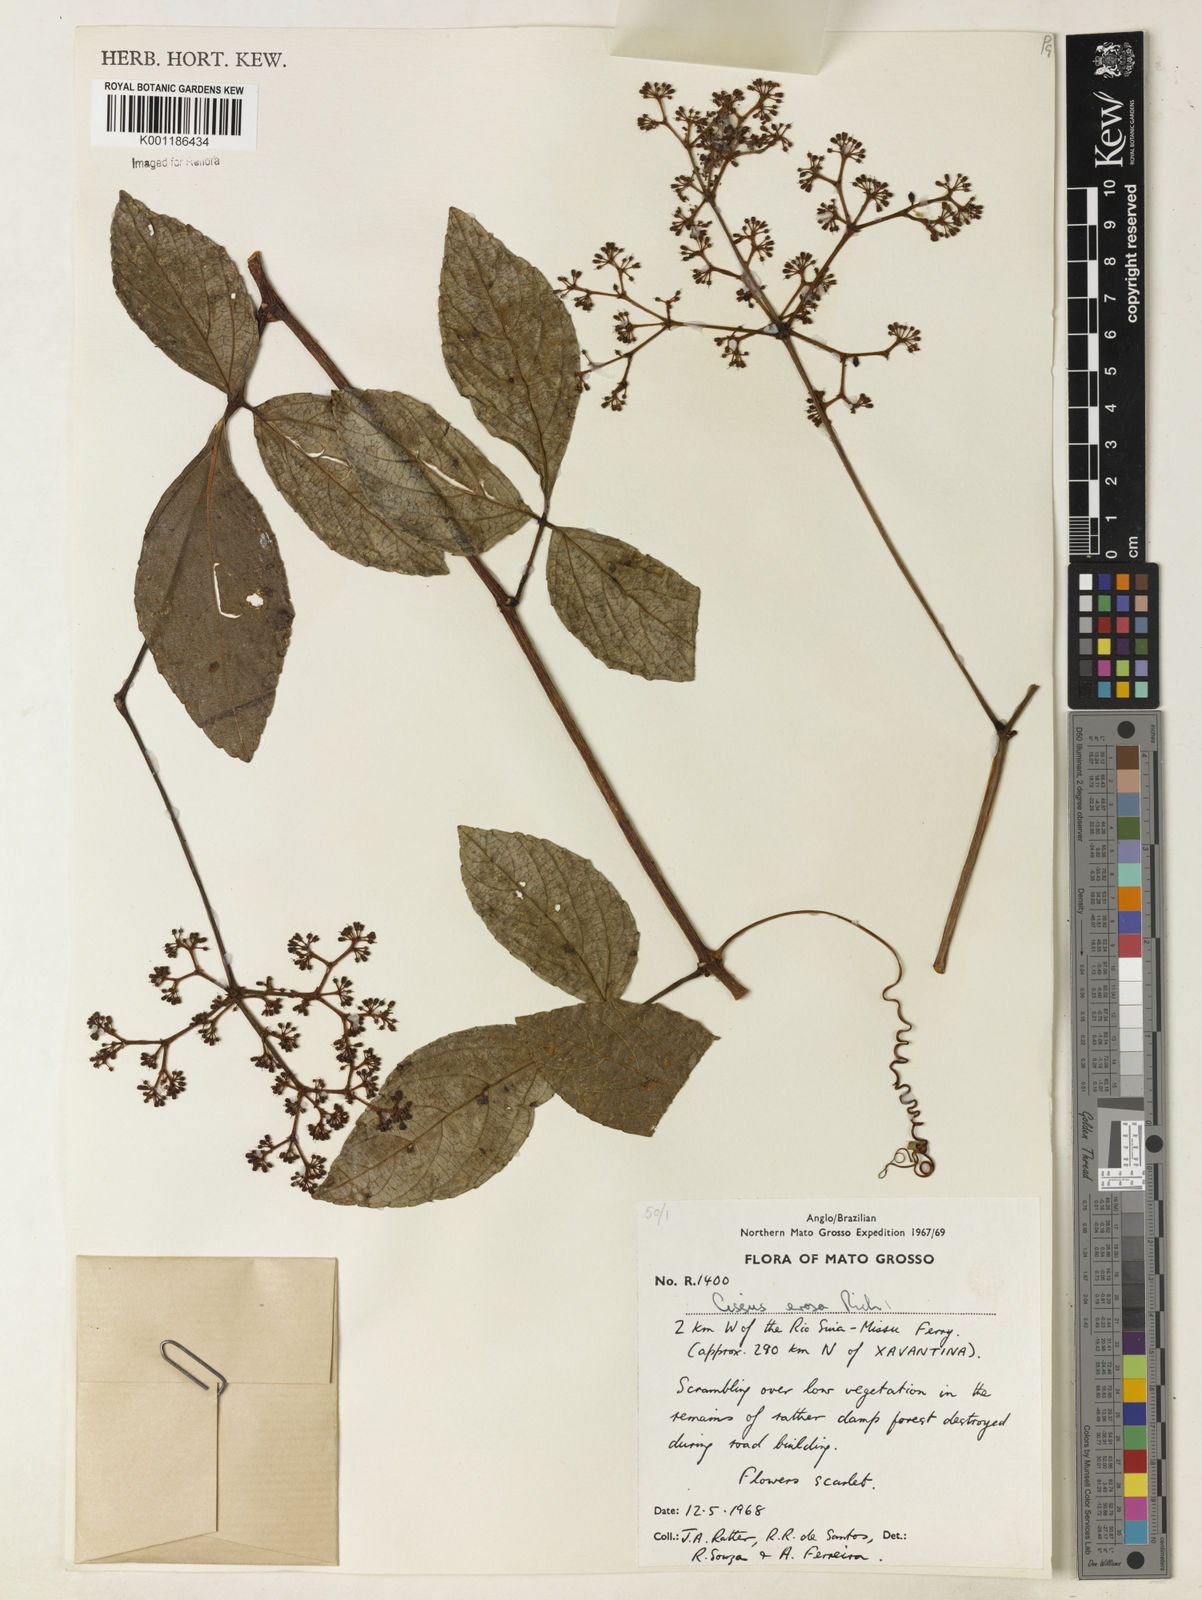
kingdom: Plantae
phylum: Tracheophyta
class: Magnoliopsida
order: Vitales
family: Vitaceae
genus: Cissus
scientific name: Cissus erosa
